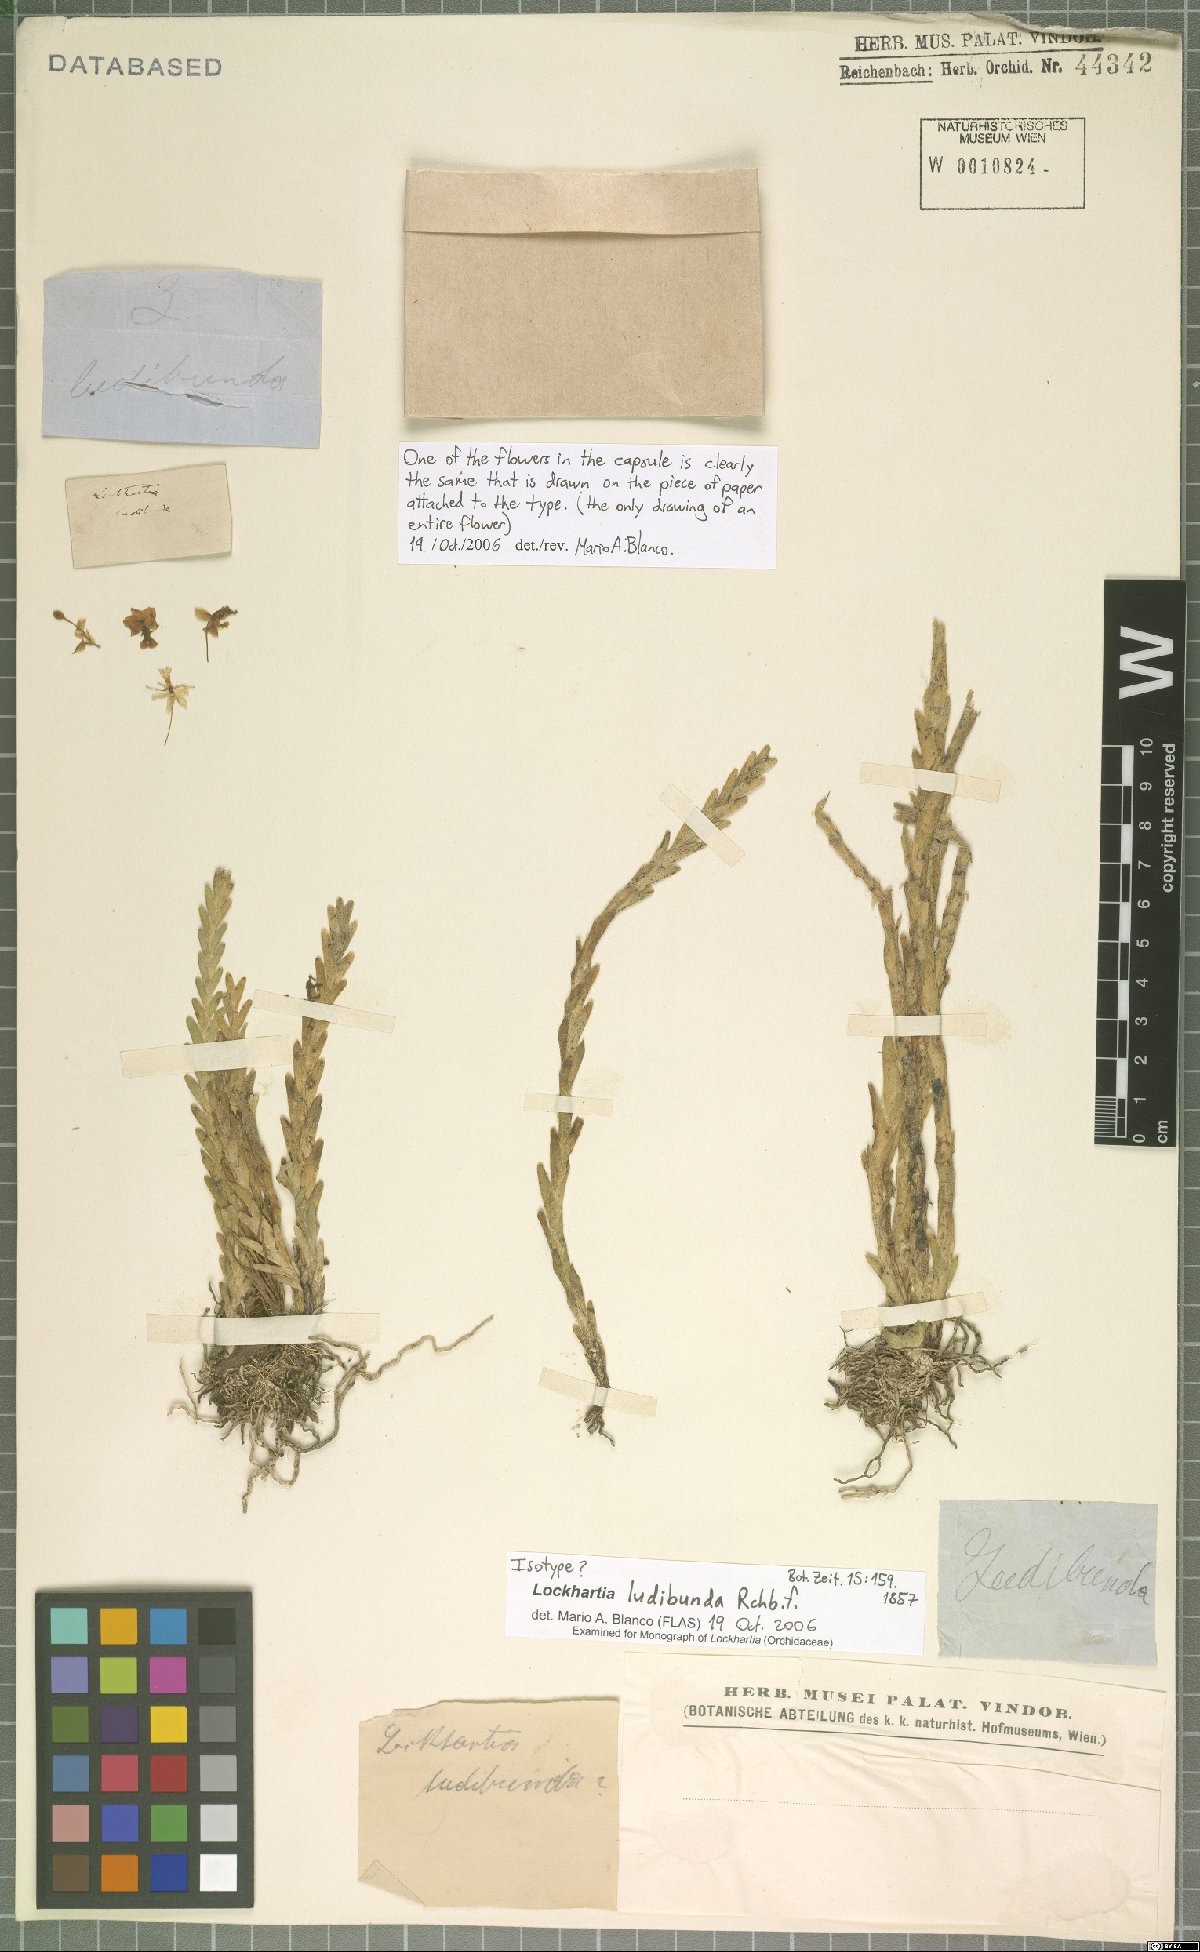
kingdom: Plantae
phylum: Tracheophyta
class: Liliopsida
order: Asparagales
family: Orchidaceae
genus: Lockhartia
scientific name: Lockhartia ludibunda
